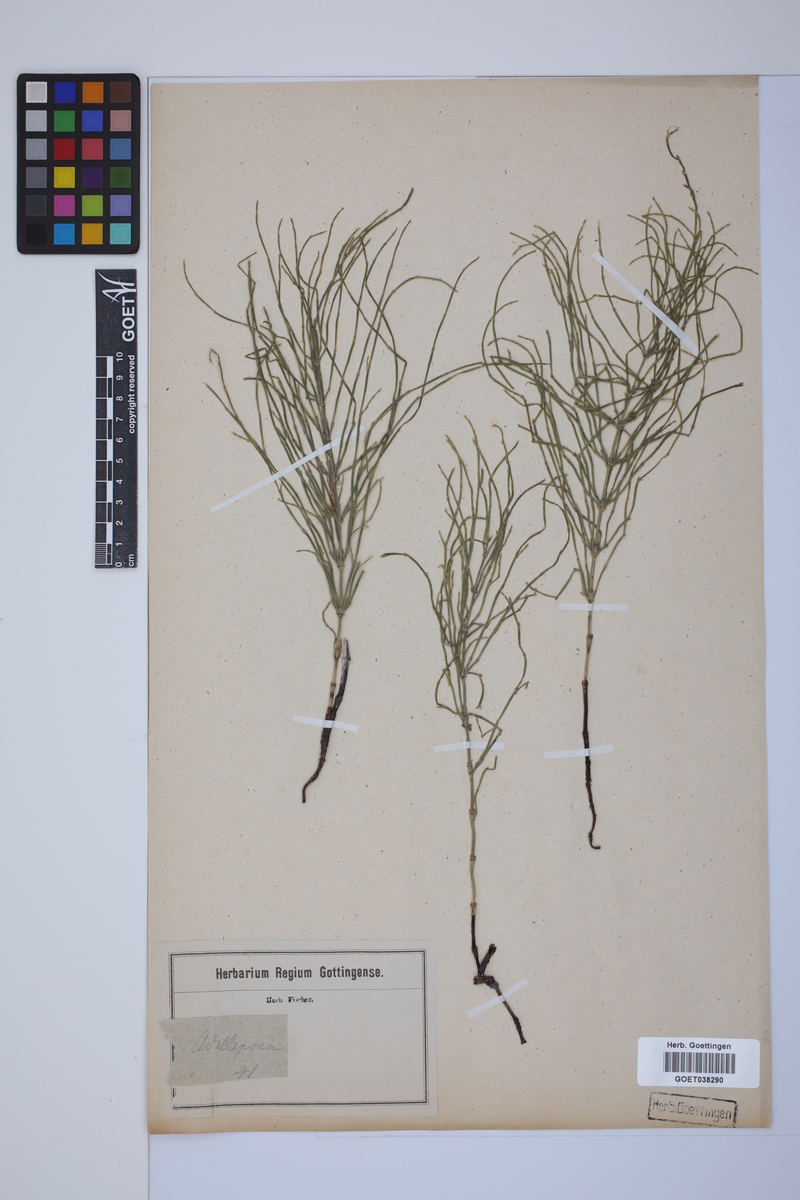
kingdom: Plantae
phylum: Tracheophyta
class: Polypodiopsida
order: Equisetales
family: Equisetaceae
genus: Equisetum
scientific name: Equisetum arvense
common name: Field horsetail
